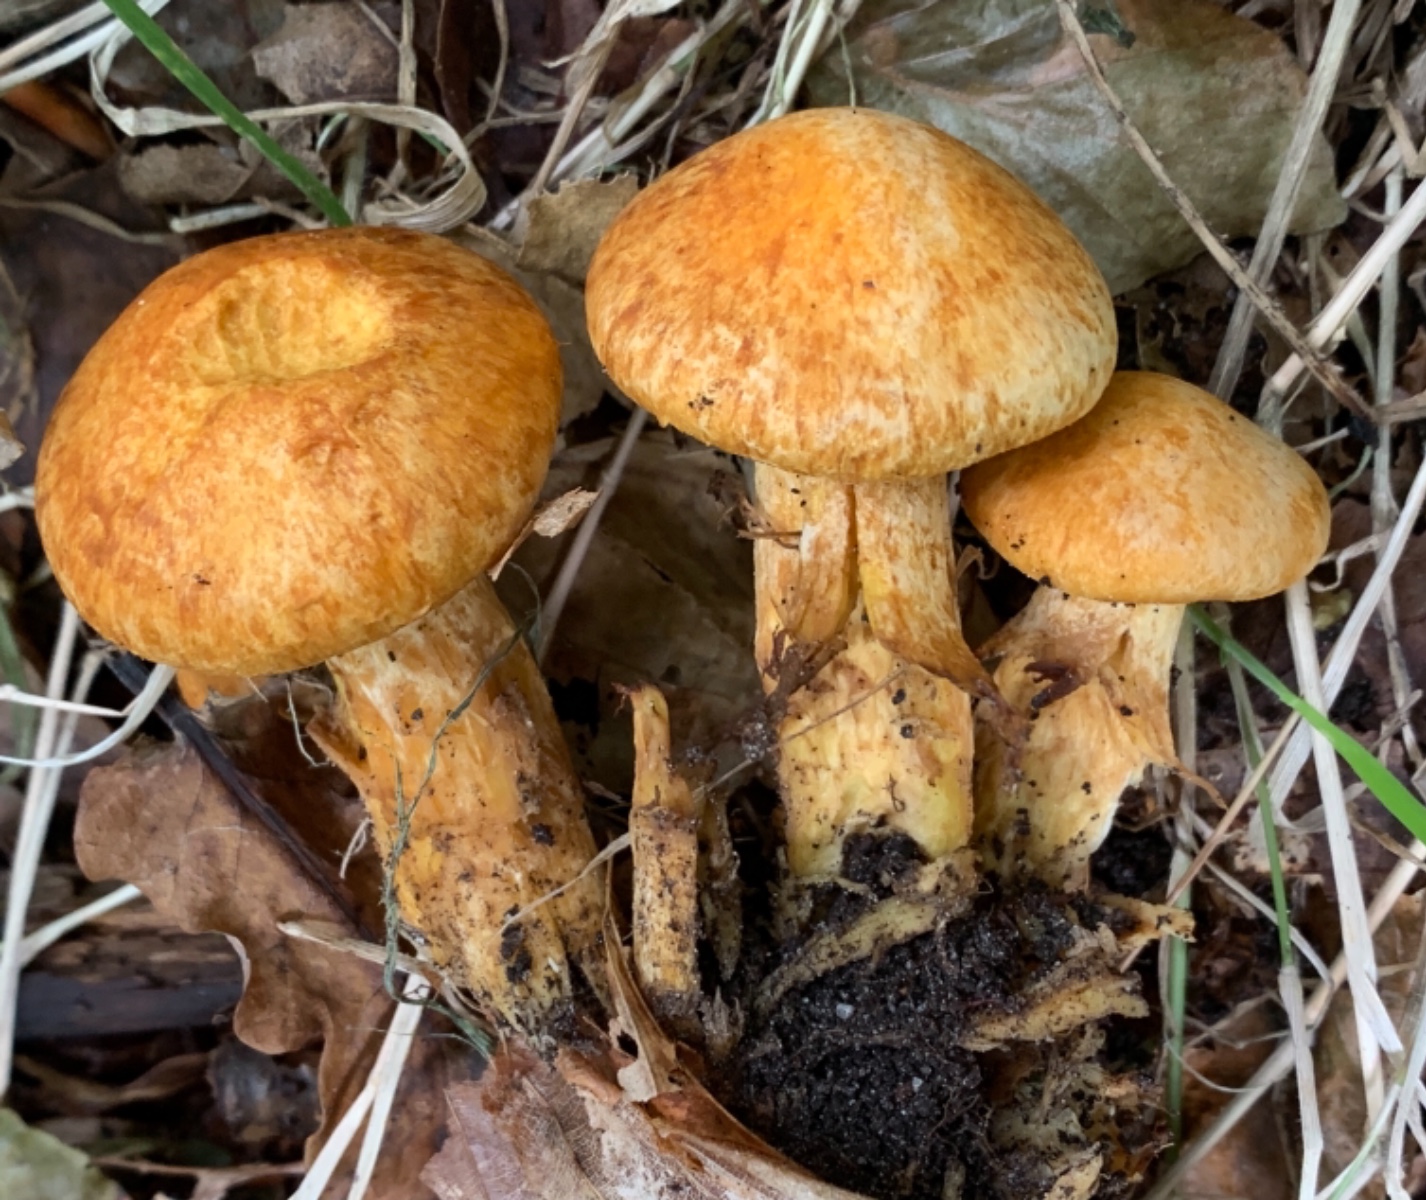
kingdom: Fungi
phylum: Basidiomycota
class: Agaricomycetes
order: Agaricales
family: Hymenogastraceae
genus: Gymnopilus
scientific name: Gymnopilus spectabilis
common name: fibret flammehat
